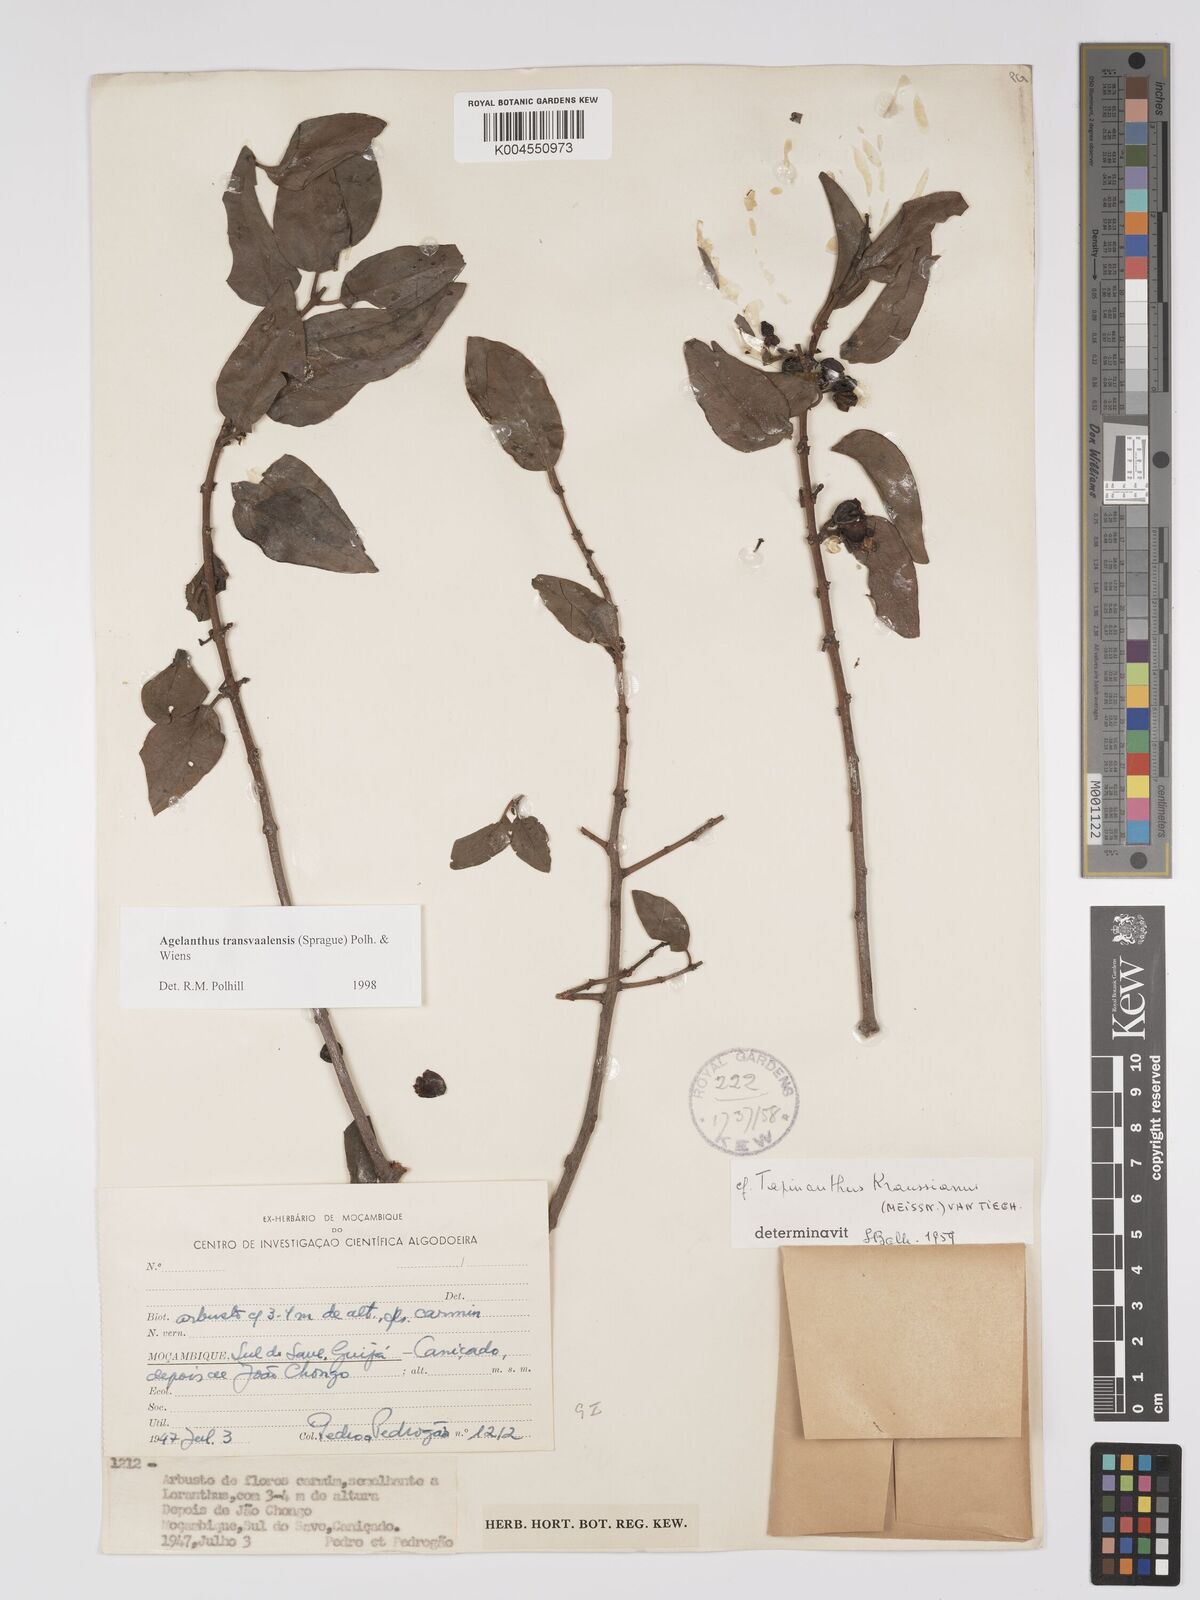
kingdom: Plantae
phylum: Tracheophyta
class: Magnoliopsida
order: Santalales
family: Loranthaceae
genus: Agelanthus
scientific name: Agelanthus transvaalensis
